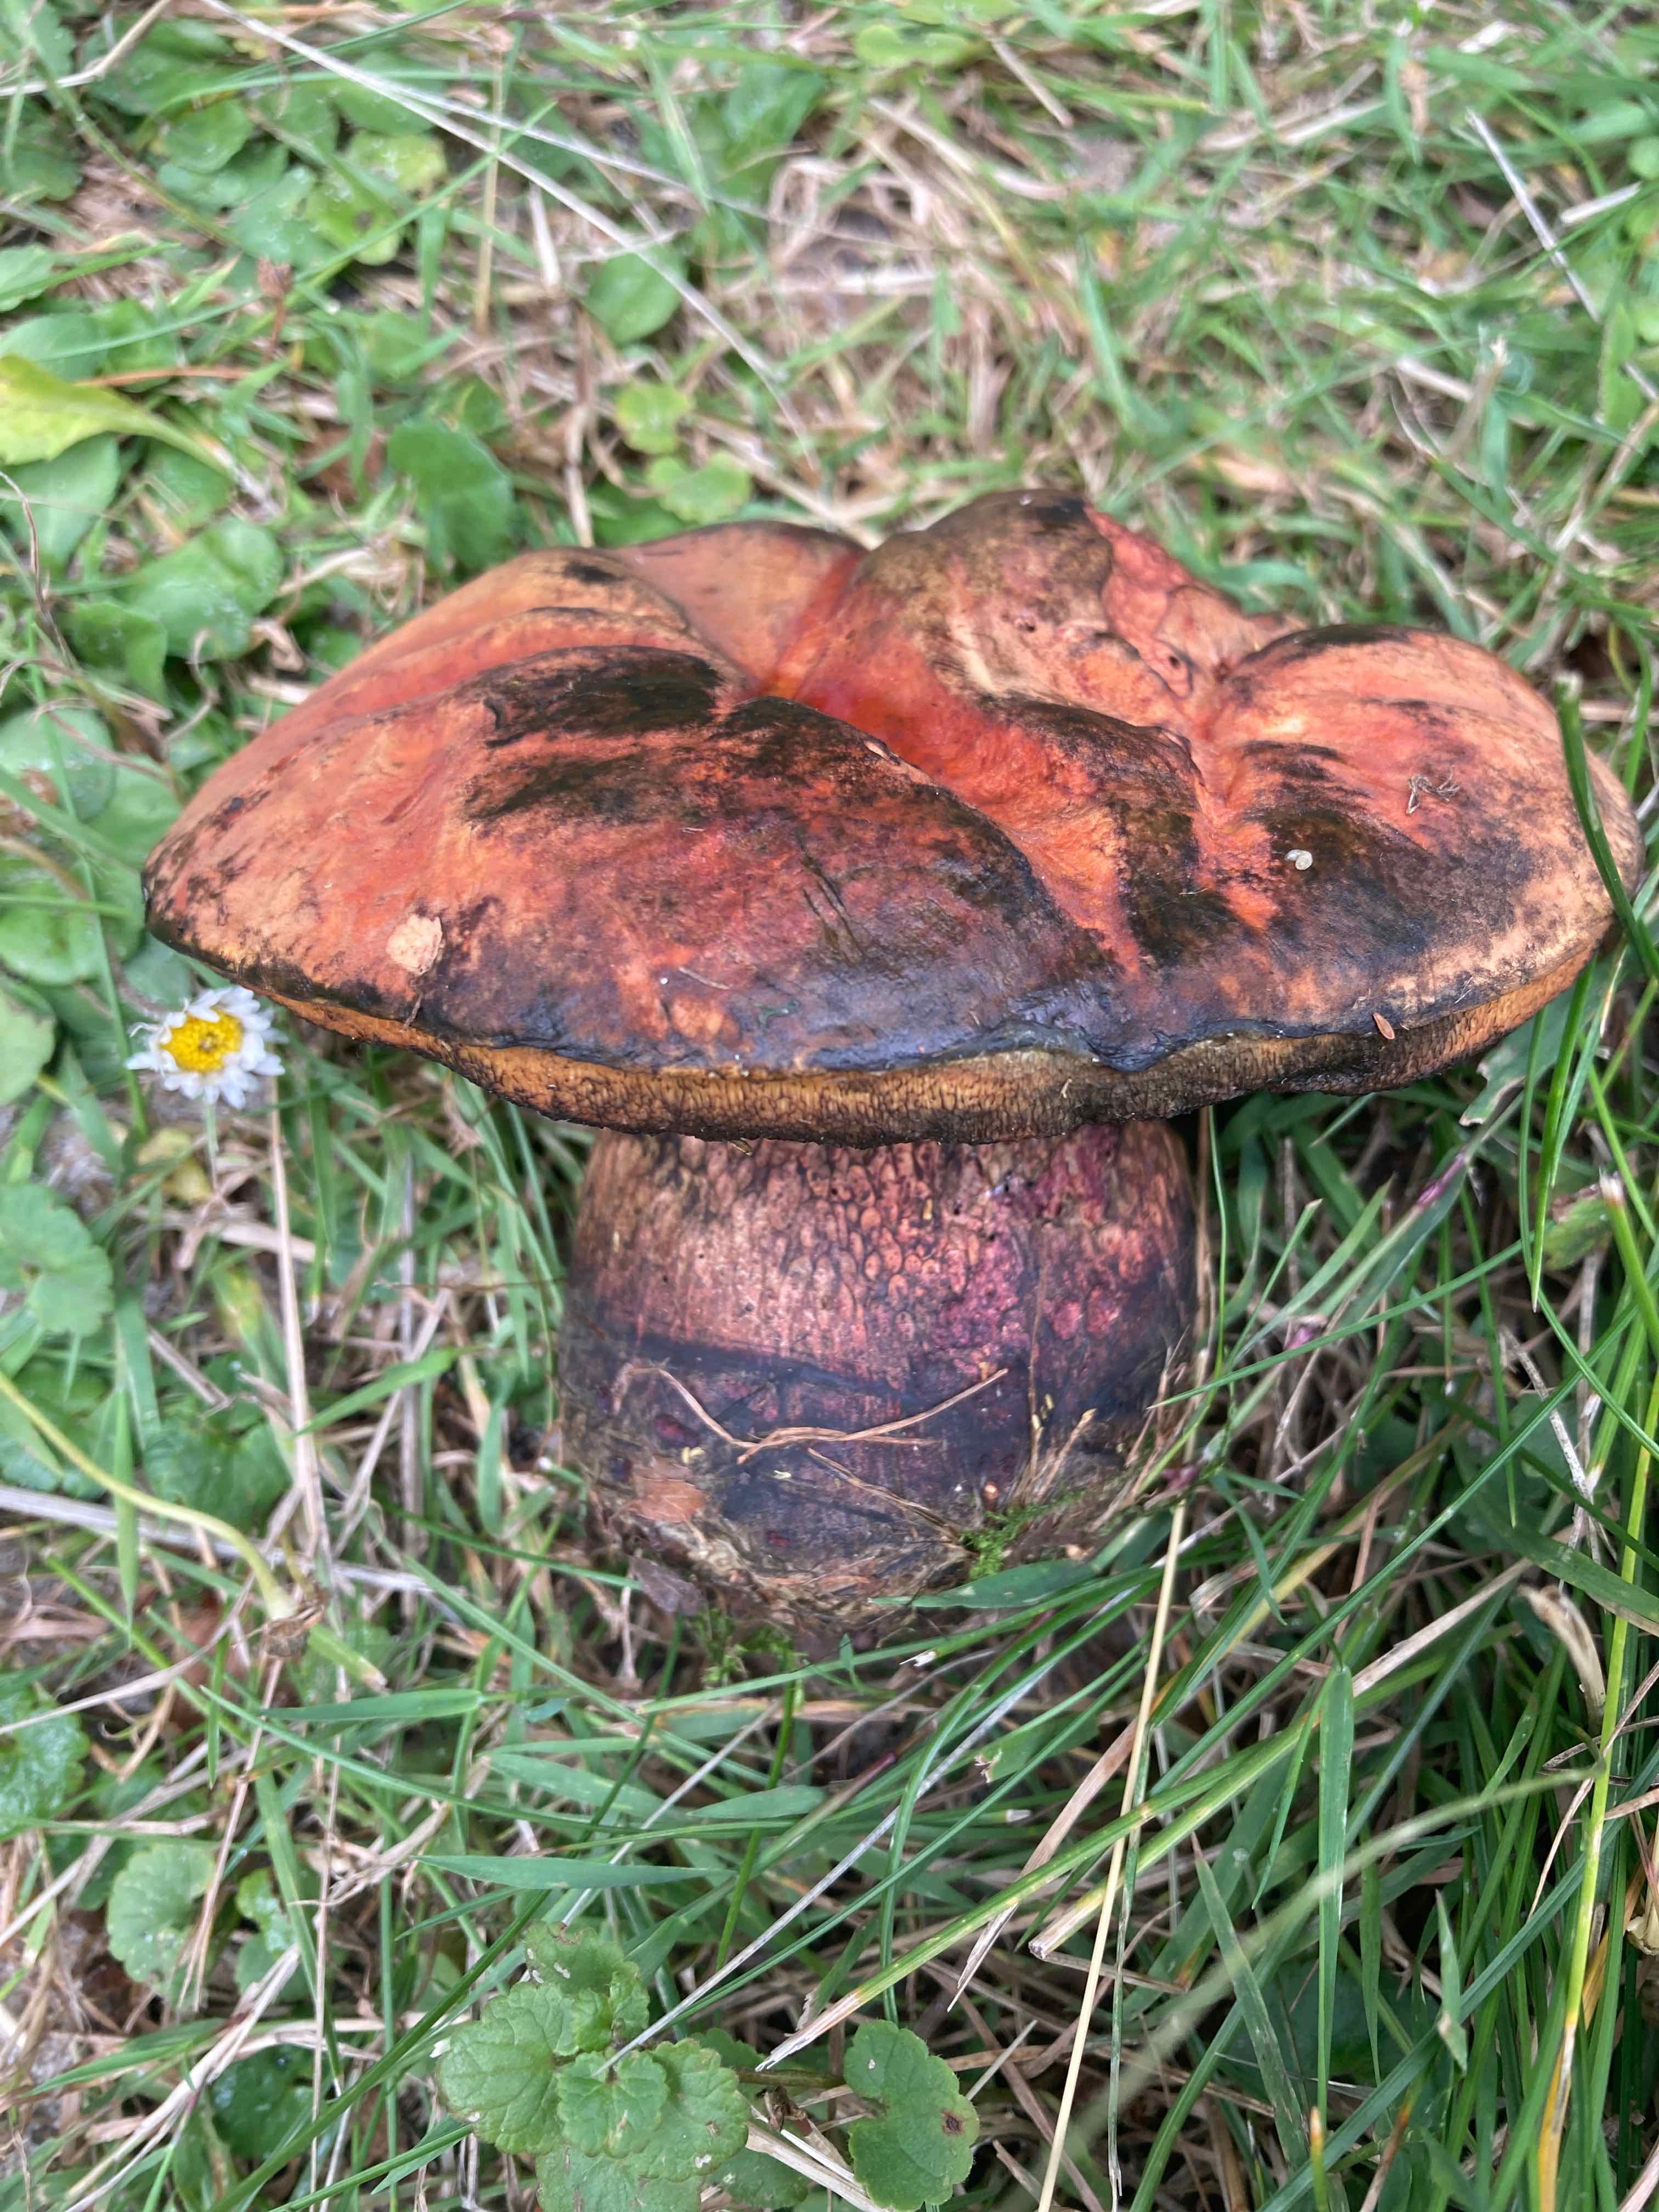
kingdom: Fungi
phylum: Basidiomycota
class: Agaricomycetes
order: Boletales
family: Boletaceae
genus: Suillellus
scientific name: Suillellus luridus
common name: netstokket indigorørhat
